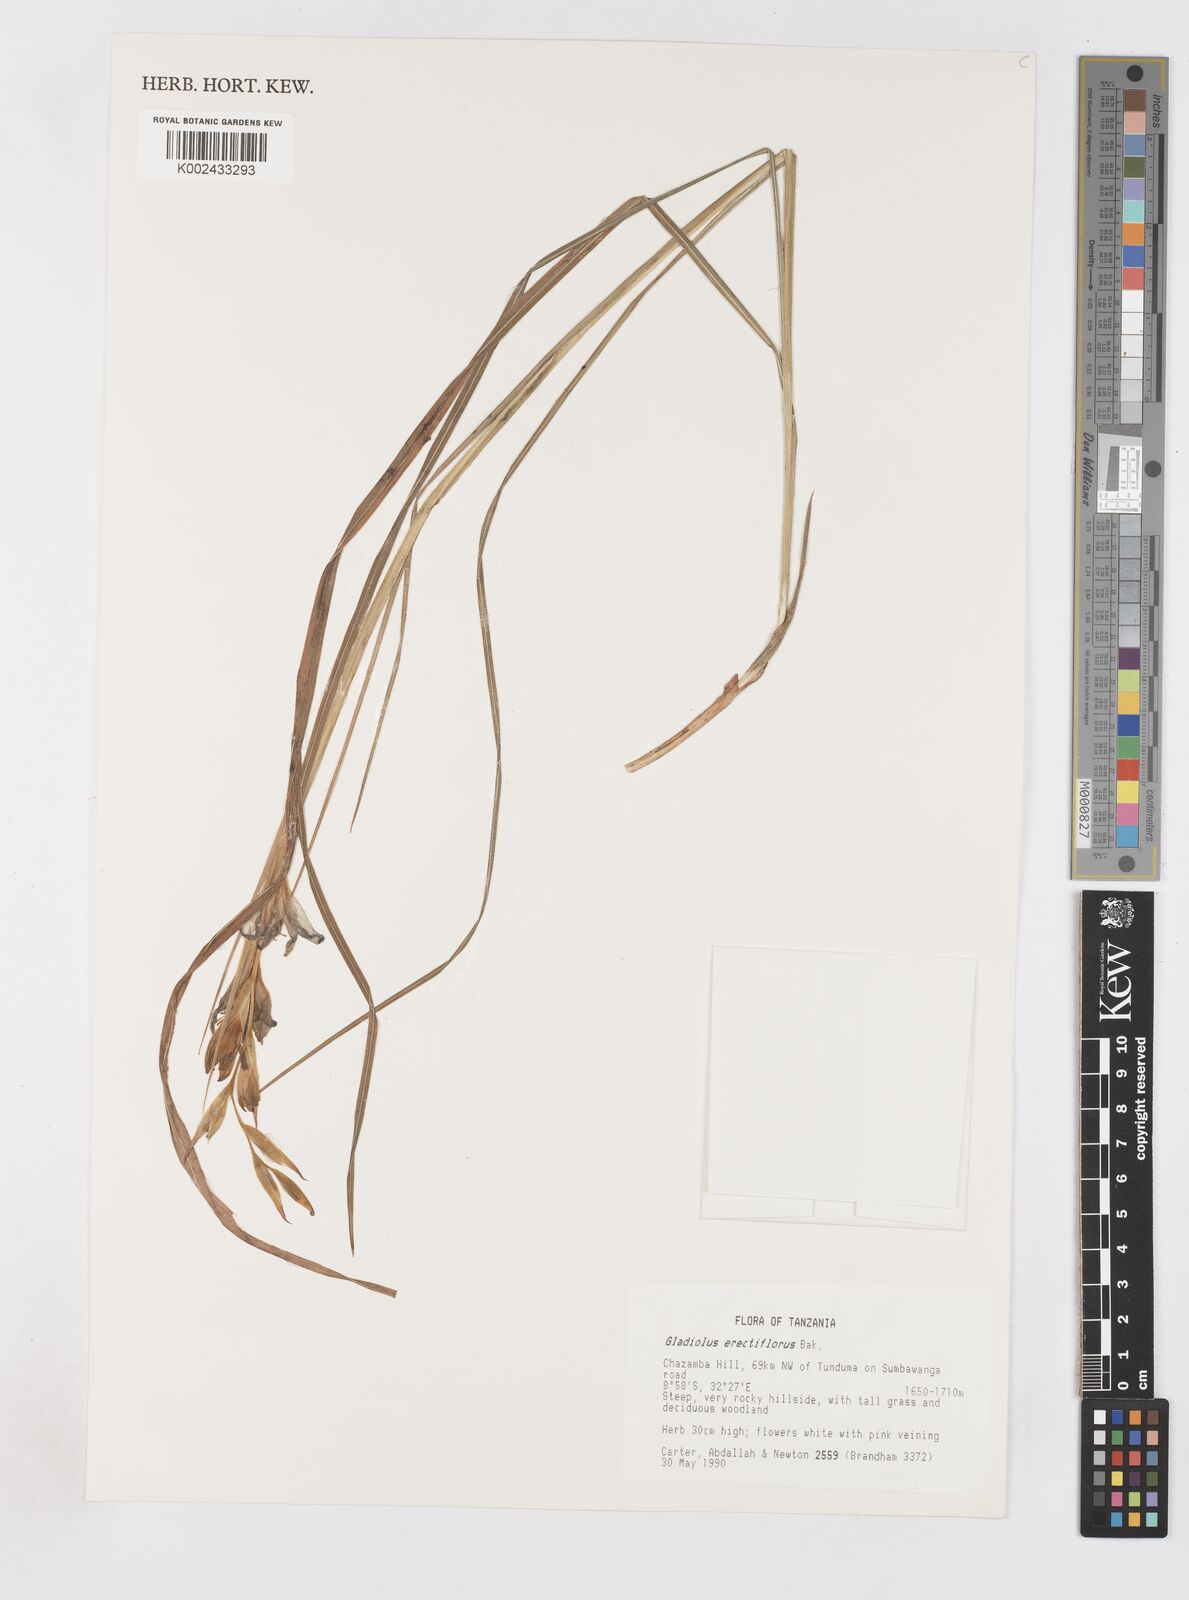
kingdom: Plantae
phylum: Tracheophyta
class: Liliopsida
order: Asparagales
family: Iridaceae
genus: Gladiolus
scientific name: Gladiolus erectiflorus
